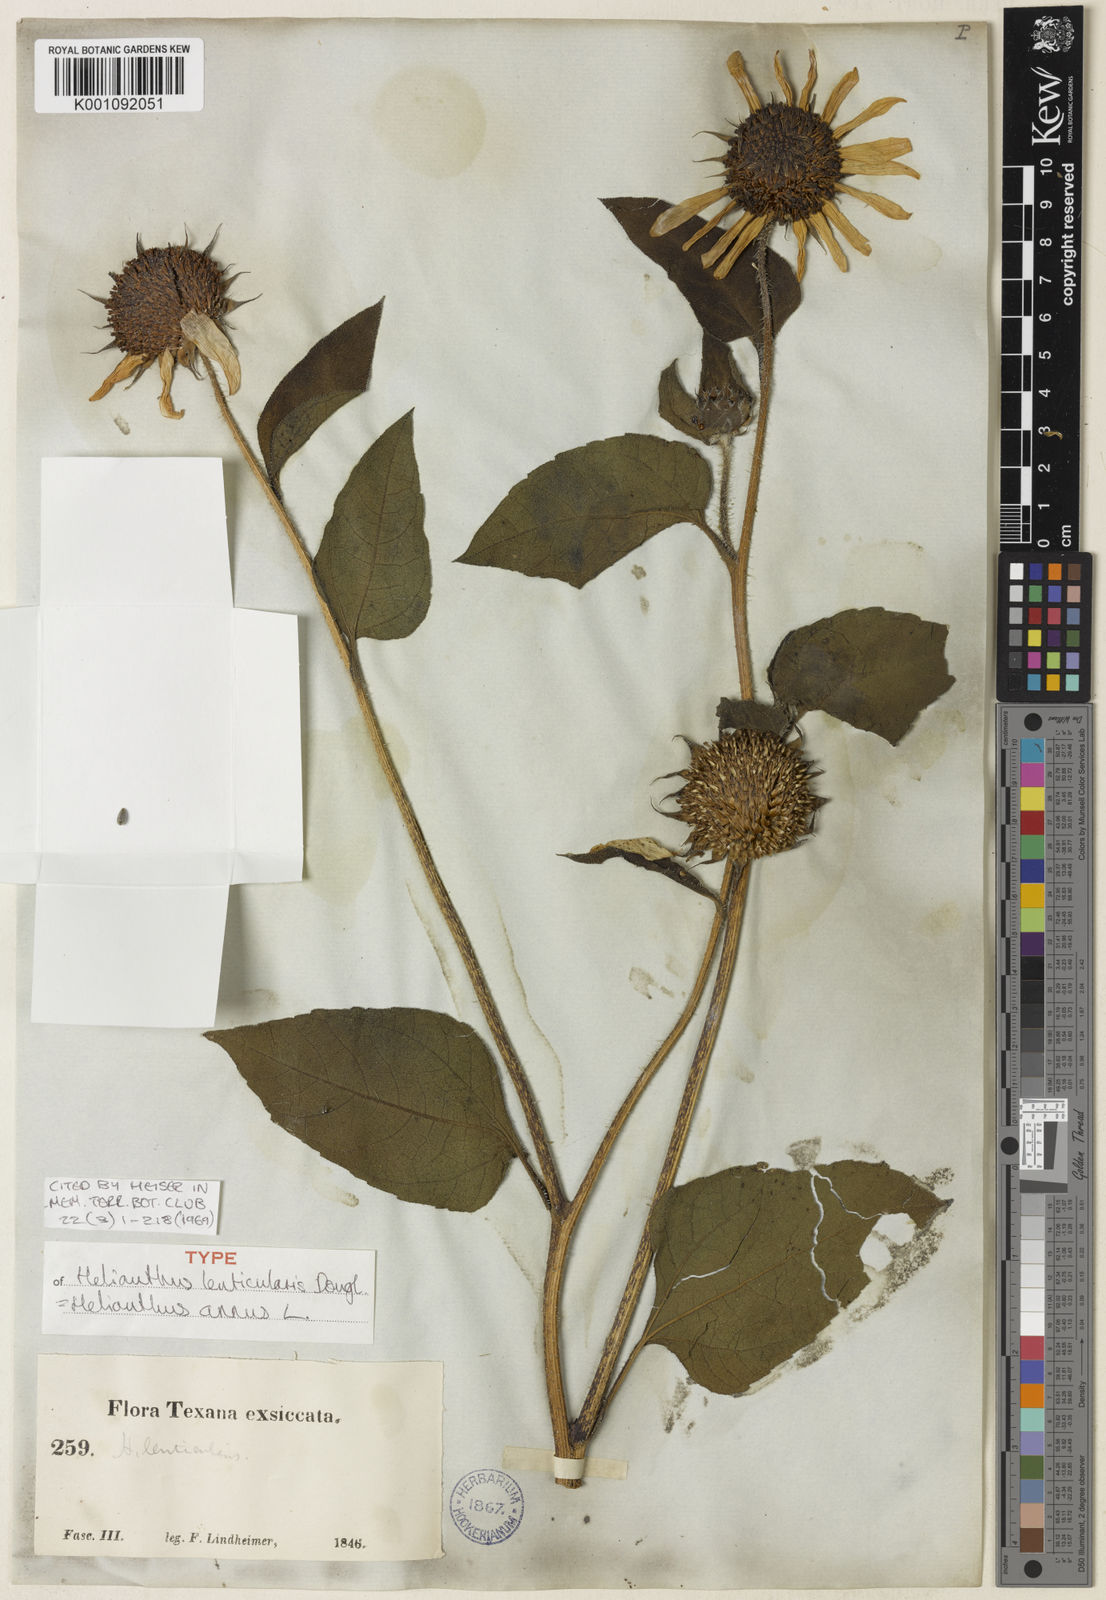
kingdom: Plantae
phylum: Tracheophyta
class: Magnoliopsida
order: Asterales
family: Asteraceae
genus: Helianthus
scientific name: Helianthus annuus
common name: Sunflower
